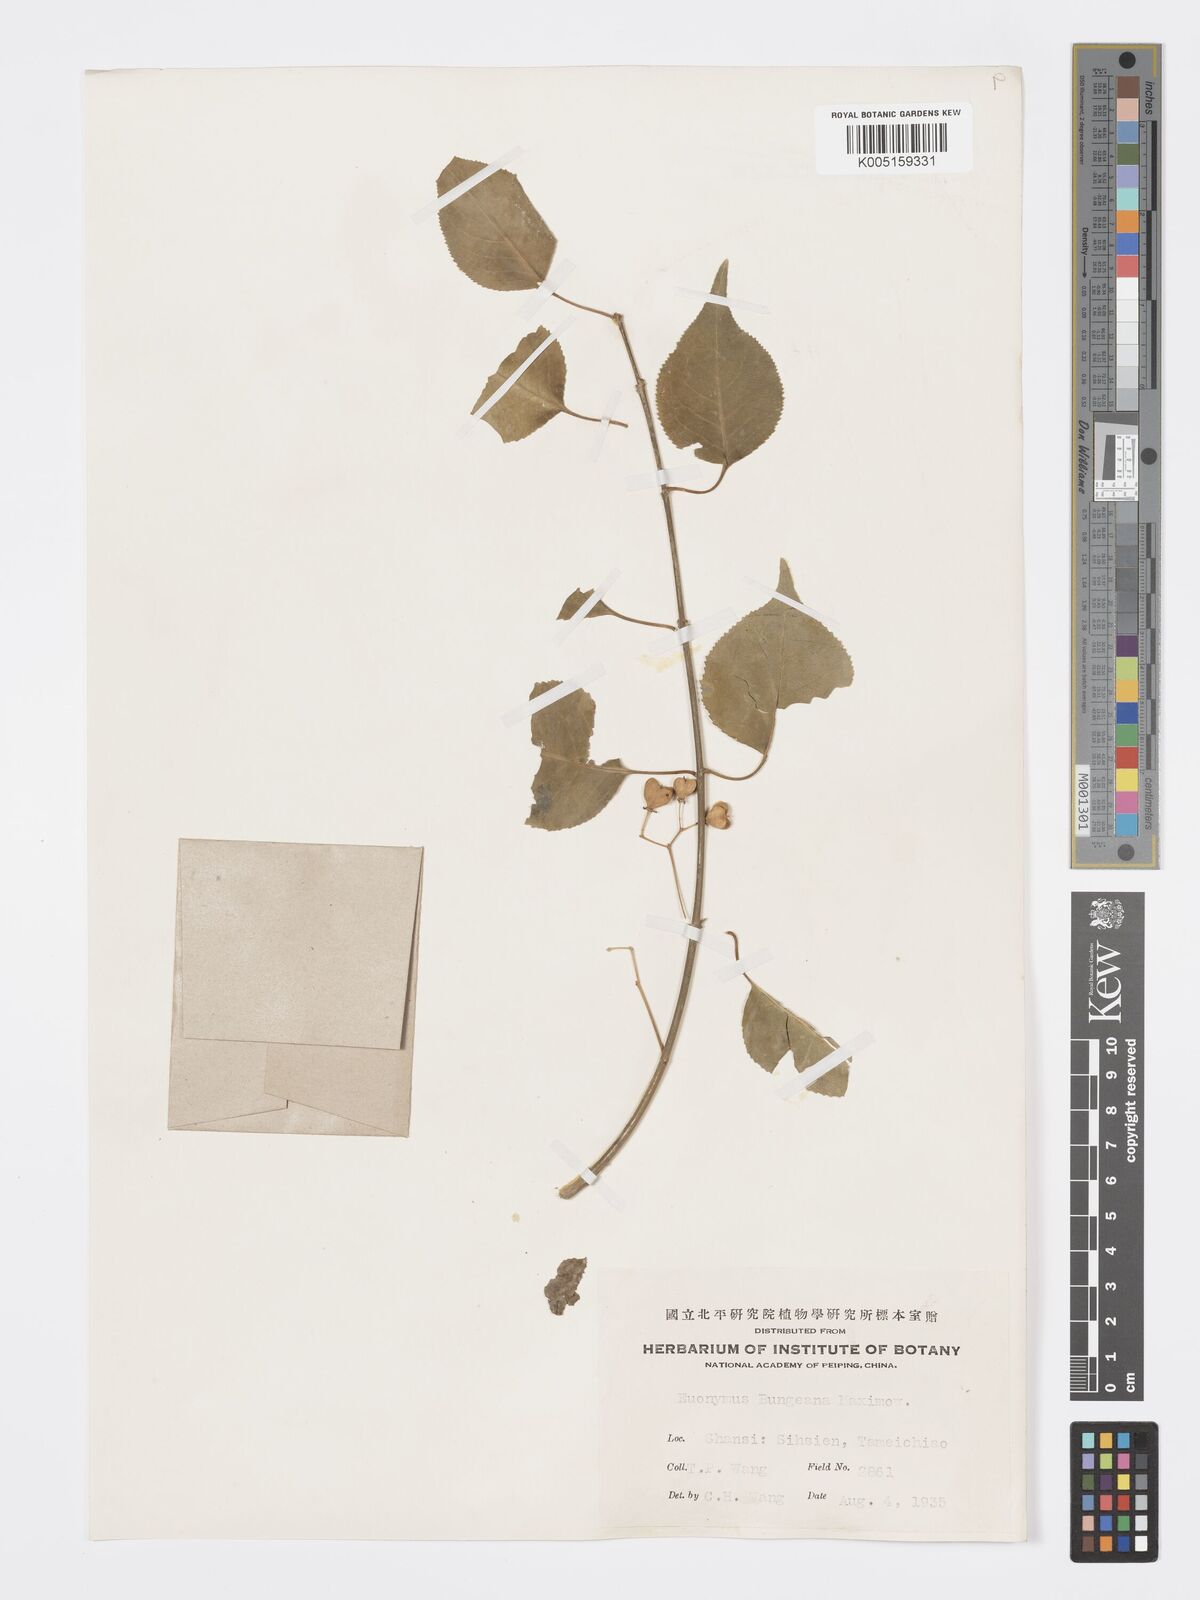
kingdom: Plantae
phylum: Tracheophyta
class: Magnoliopsida
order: Celastrales
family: Celastraceae
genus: Euonymus
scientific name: Euonymus maackii
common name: Hamilton's spindletree
